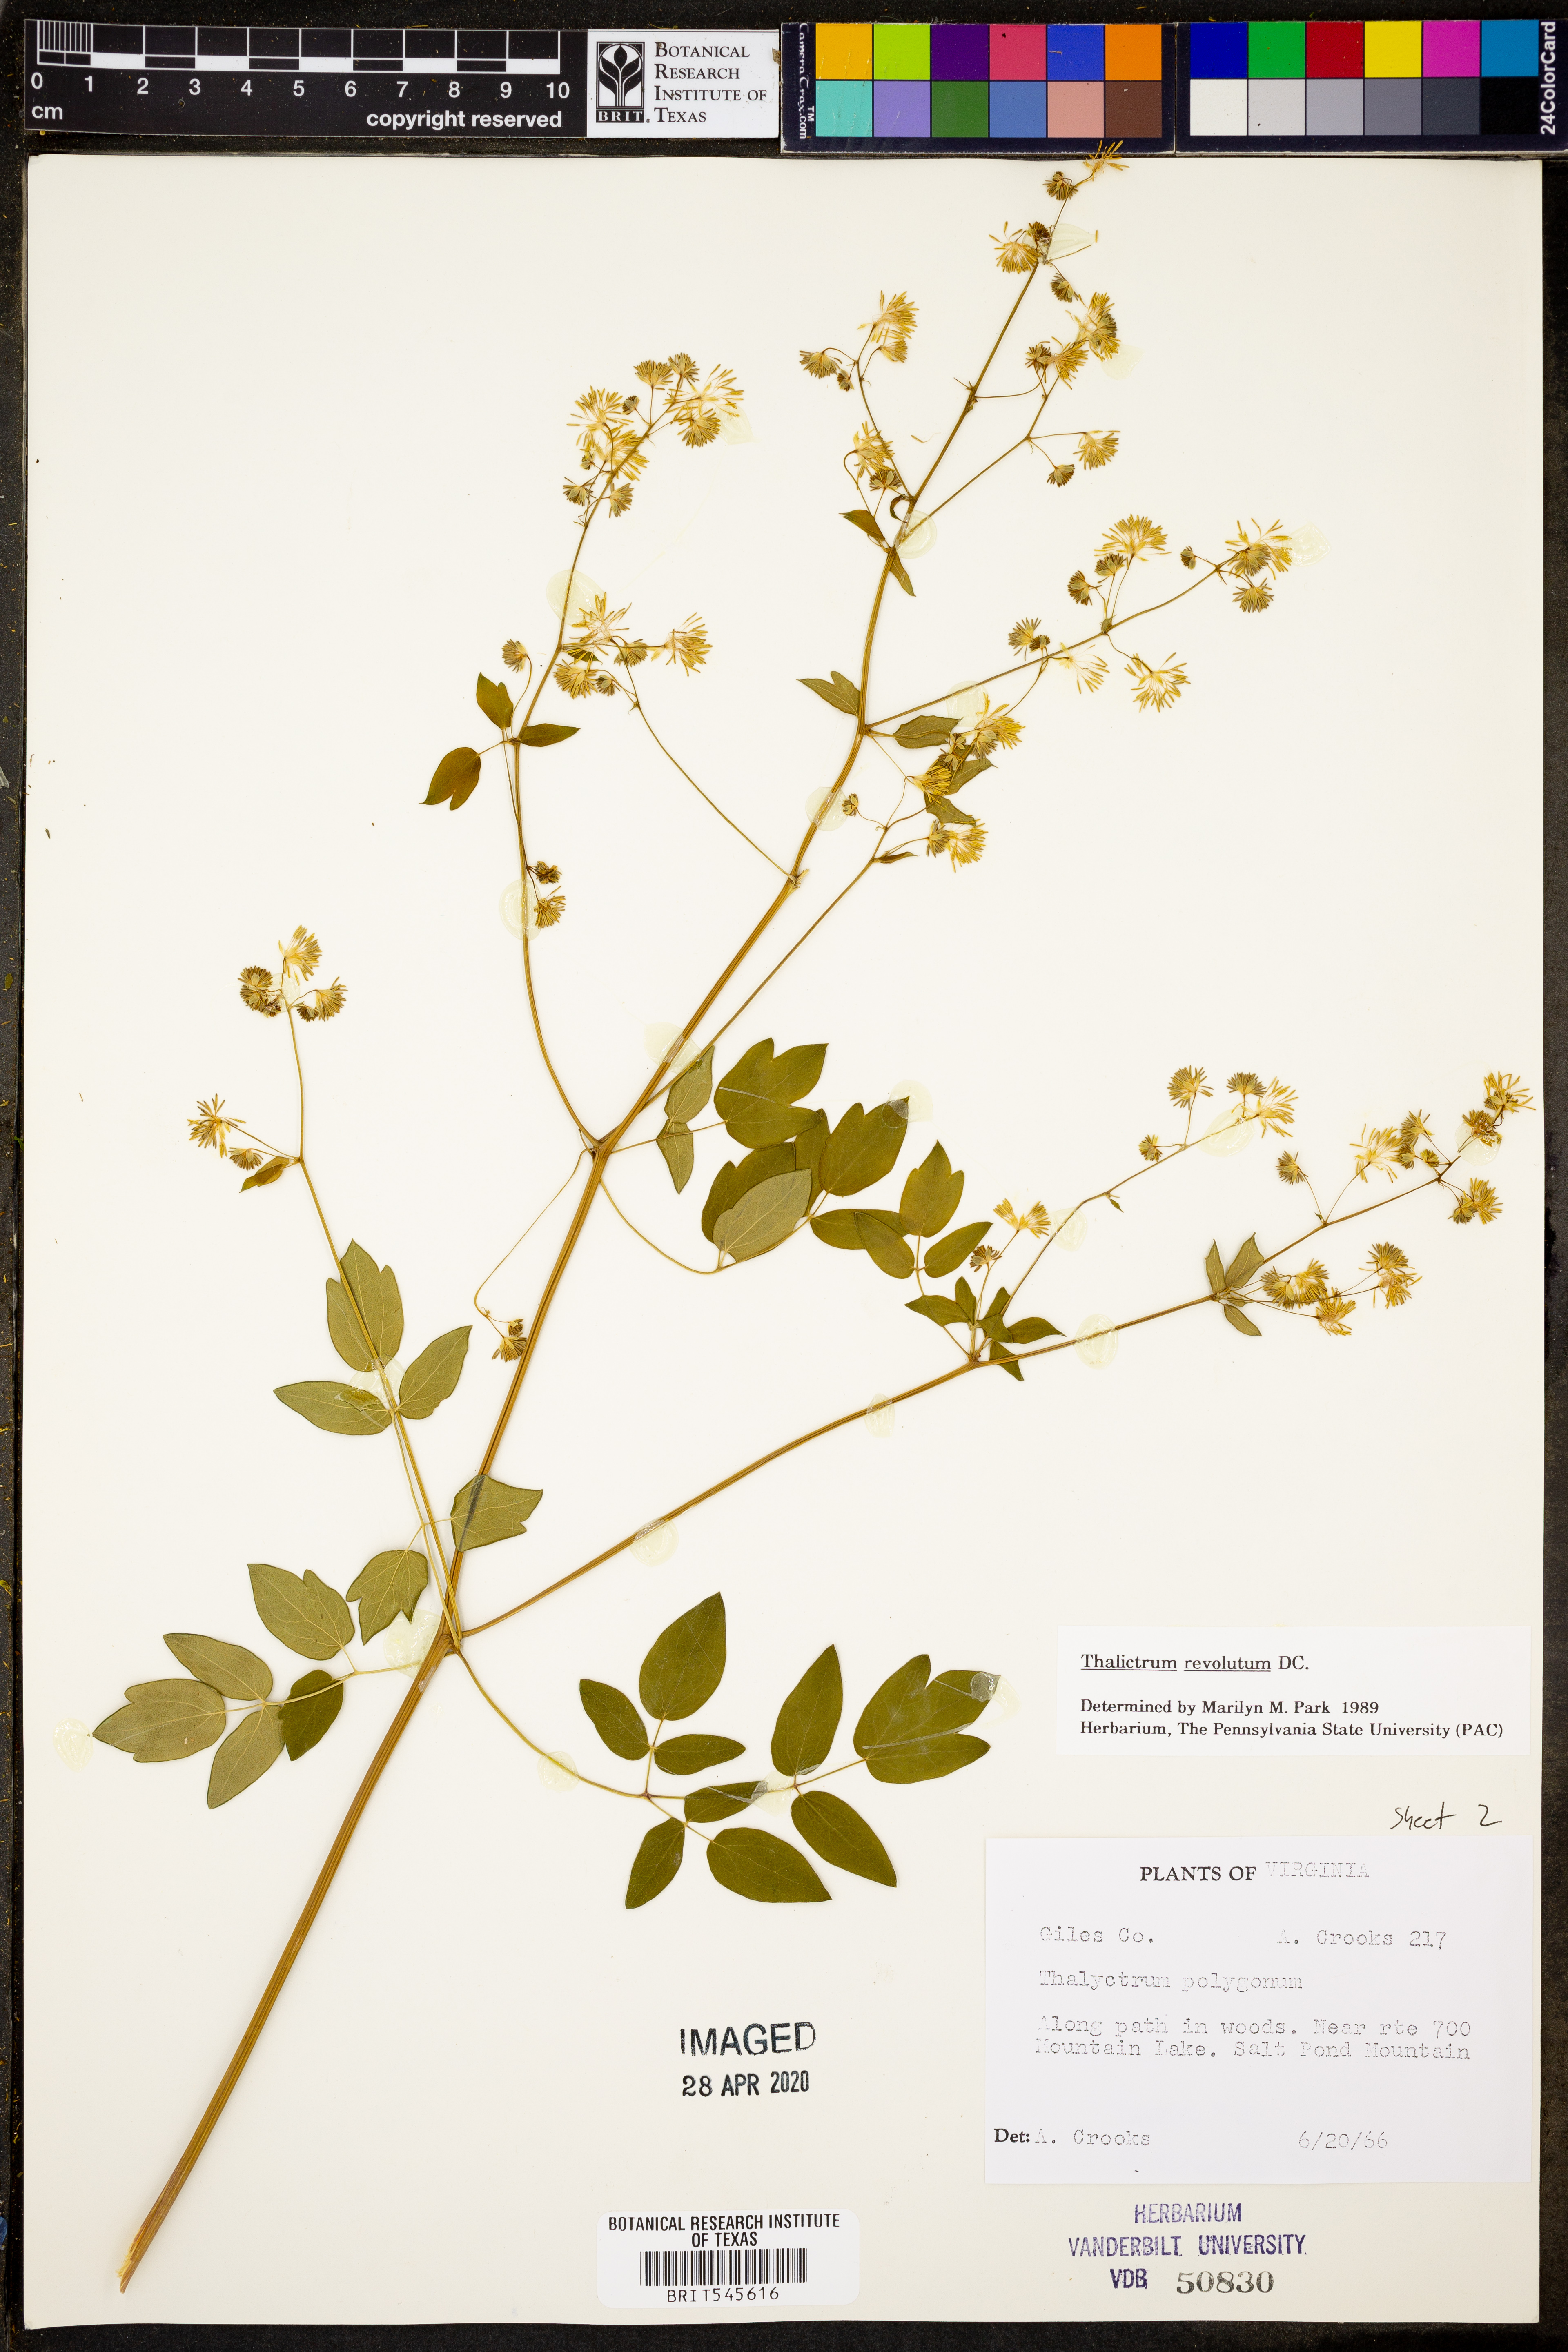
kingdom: Plantae
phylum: Tracheophyta
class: Magnoliopsida
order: Ranunculales
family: Ranunculaceae
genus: Thalictrum
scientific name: Thalictrum revolutum
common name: Waxy meadow-rue
